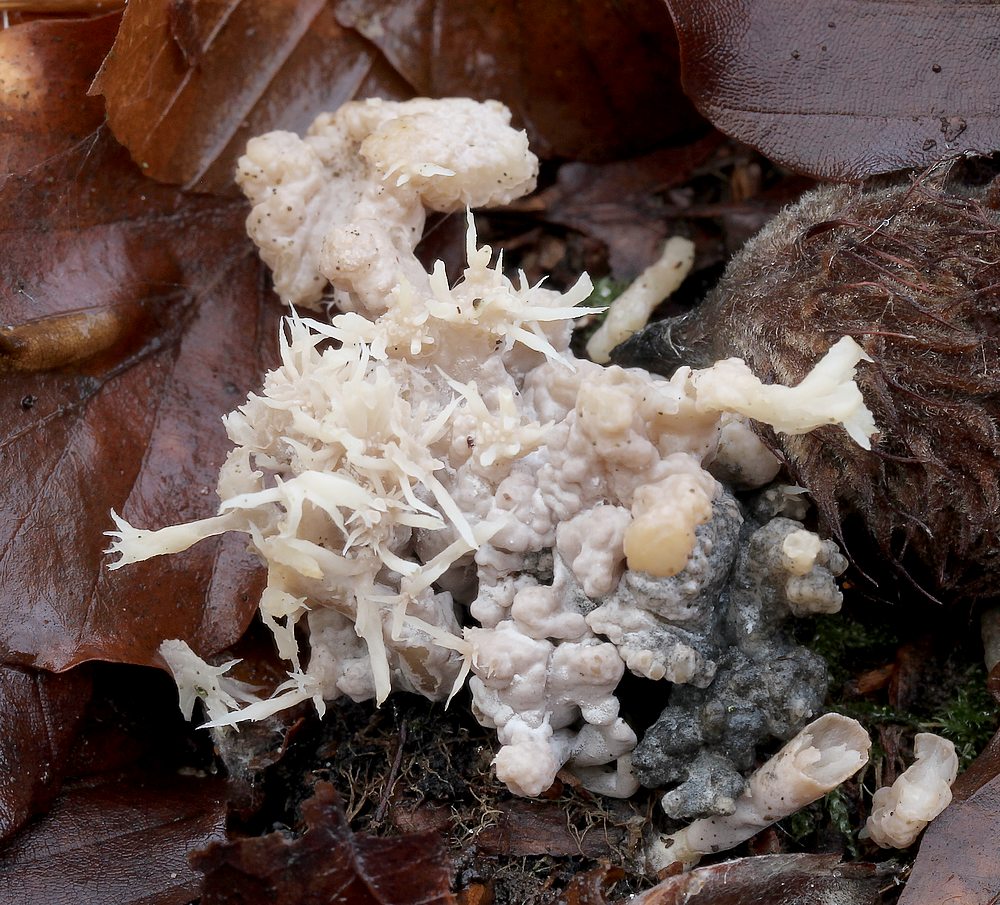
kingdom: Fungi
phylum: Ascomycota
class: Sordariomycetes
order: Sordariales
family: Helminthosphaeriaceae
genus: Helminthosphaeria
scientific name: Helminthosphaeria clavariarum
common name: trold-svampesnyltekerne
